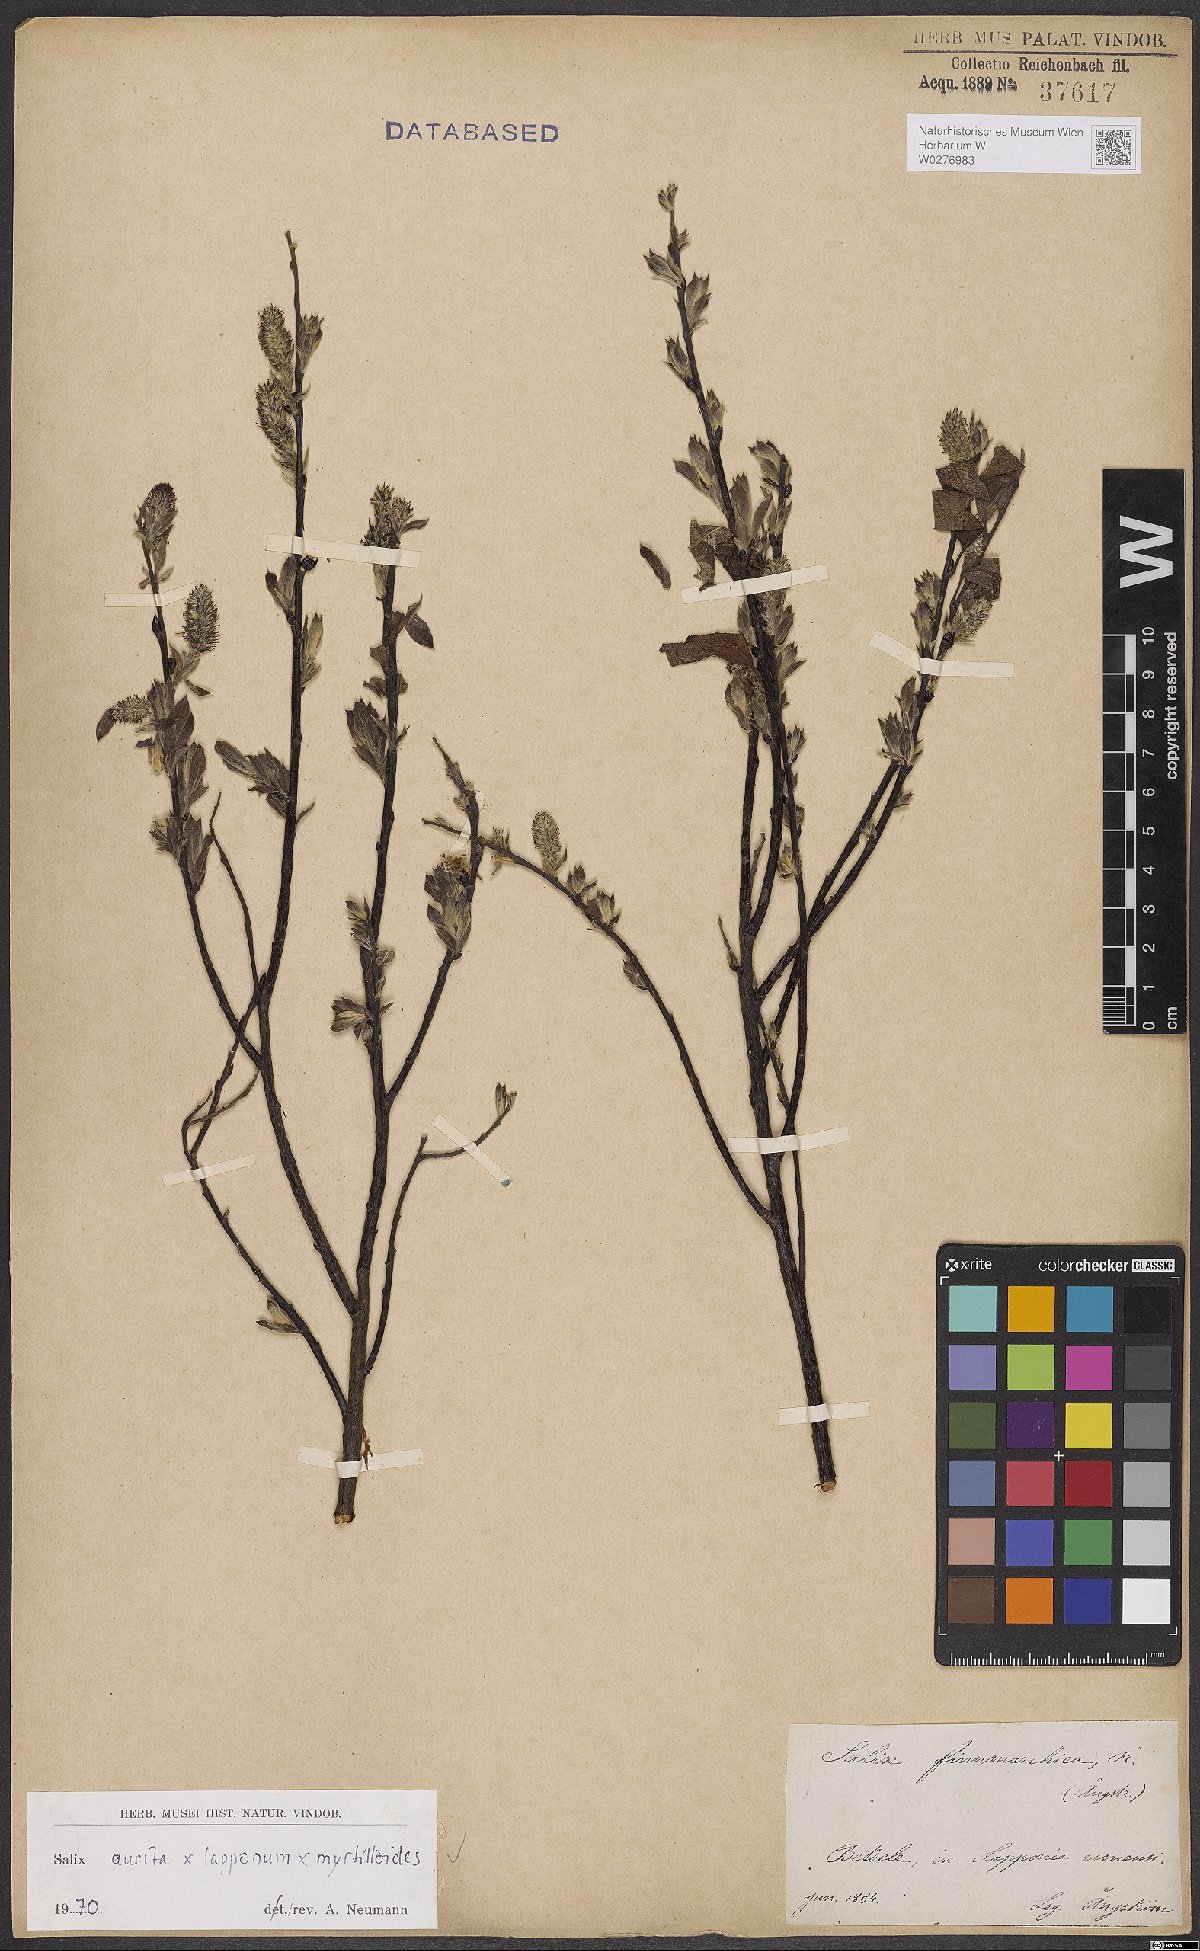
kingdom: Plantae
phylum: Tracheophyta
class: Magnoliopsida
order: Malpighiales
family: Salicaceae
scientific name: Salicaceae
